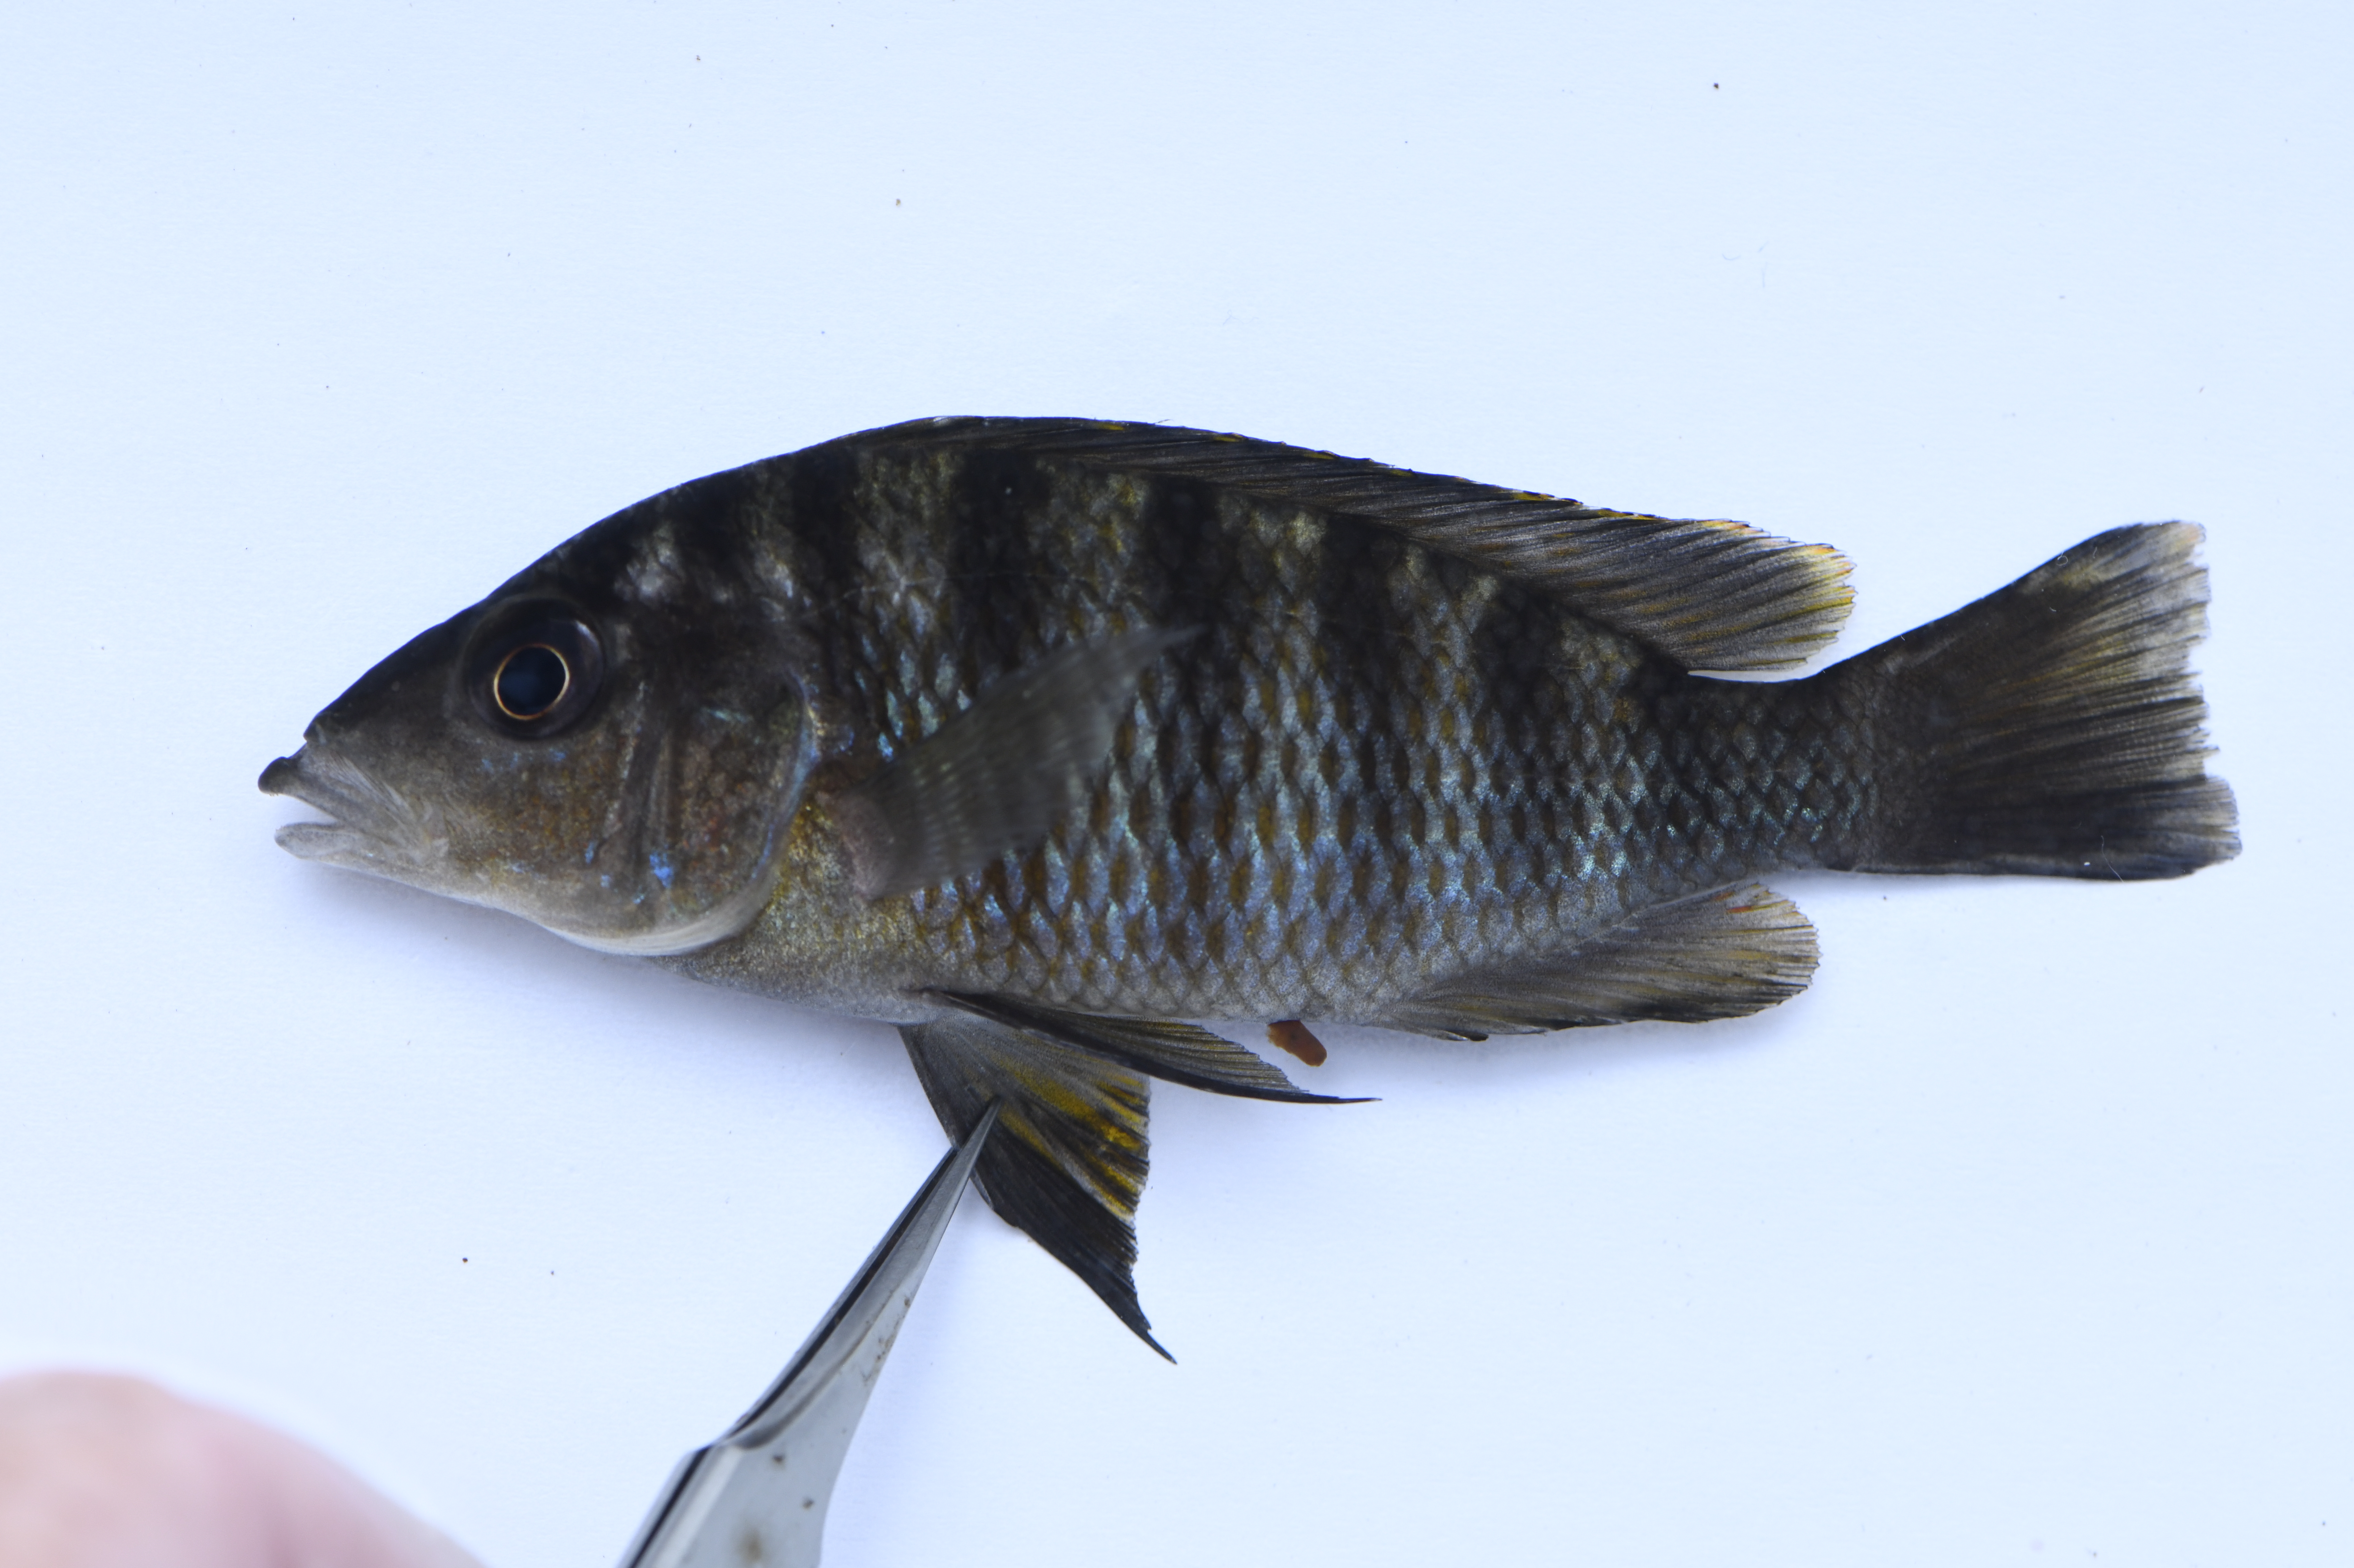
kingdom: Animalia
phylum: Chordata
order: Perciformes
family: Cichlidae
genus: Gnathochromis
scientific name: Gnathochromis pfefferi
